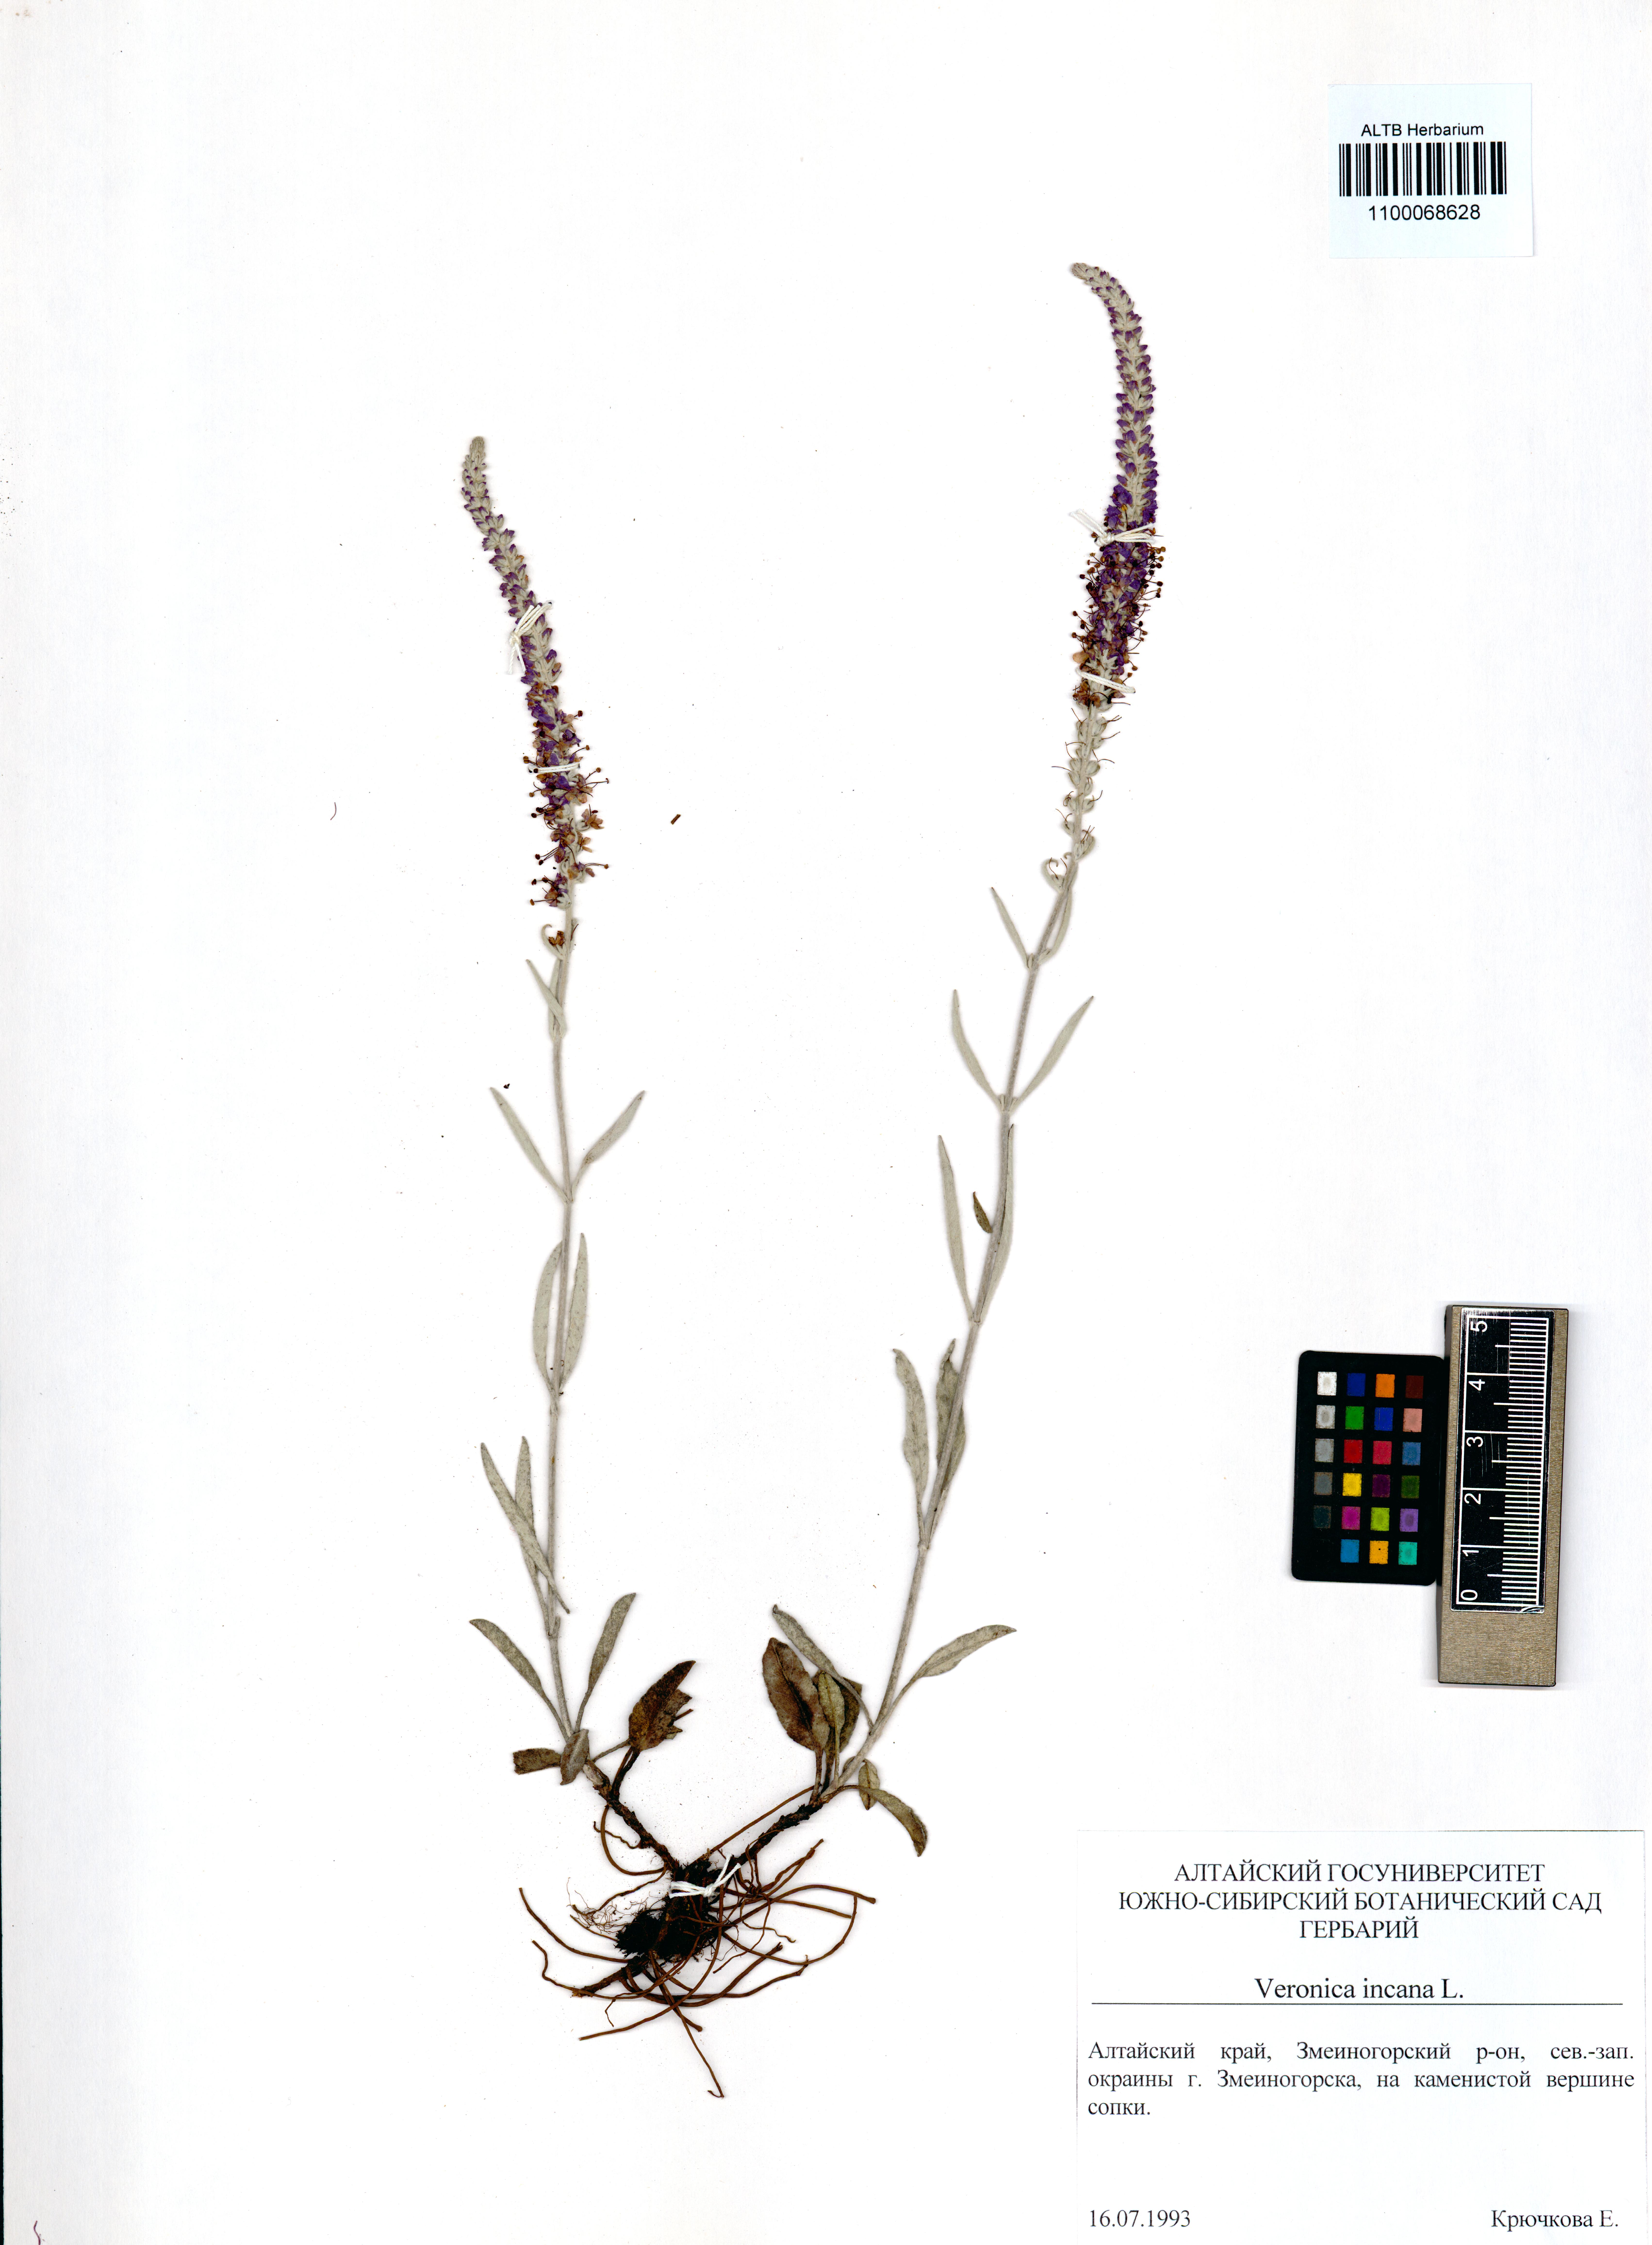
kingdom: Plantae
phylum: Tracheophyta
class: Magnoliopsida
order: Lamiales
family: Plantaginaceae
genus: Veronica
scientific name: Veronica incana
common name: Silver speedwell
